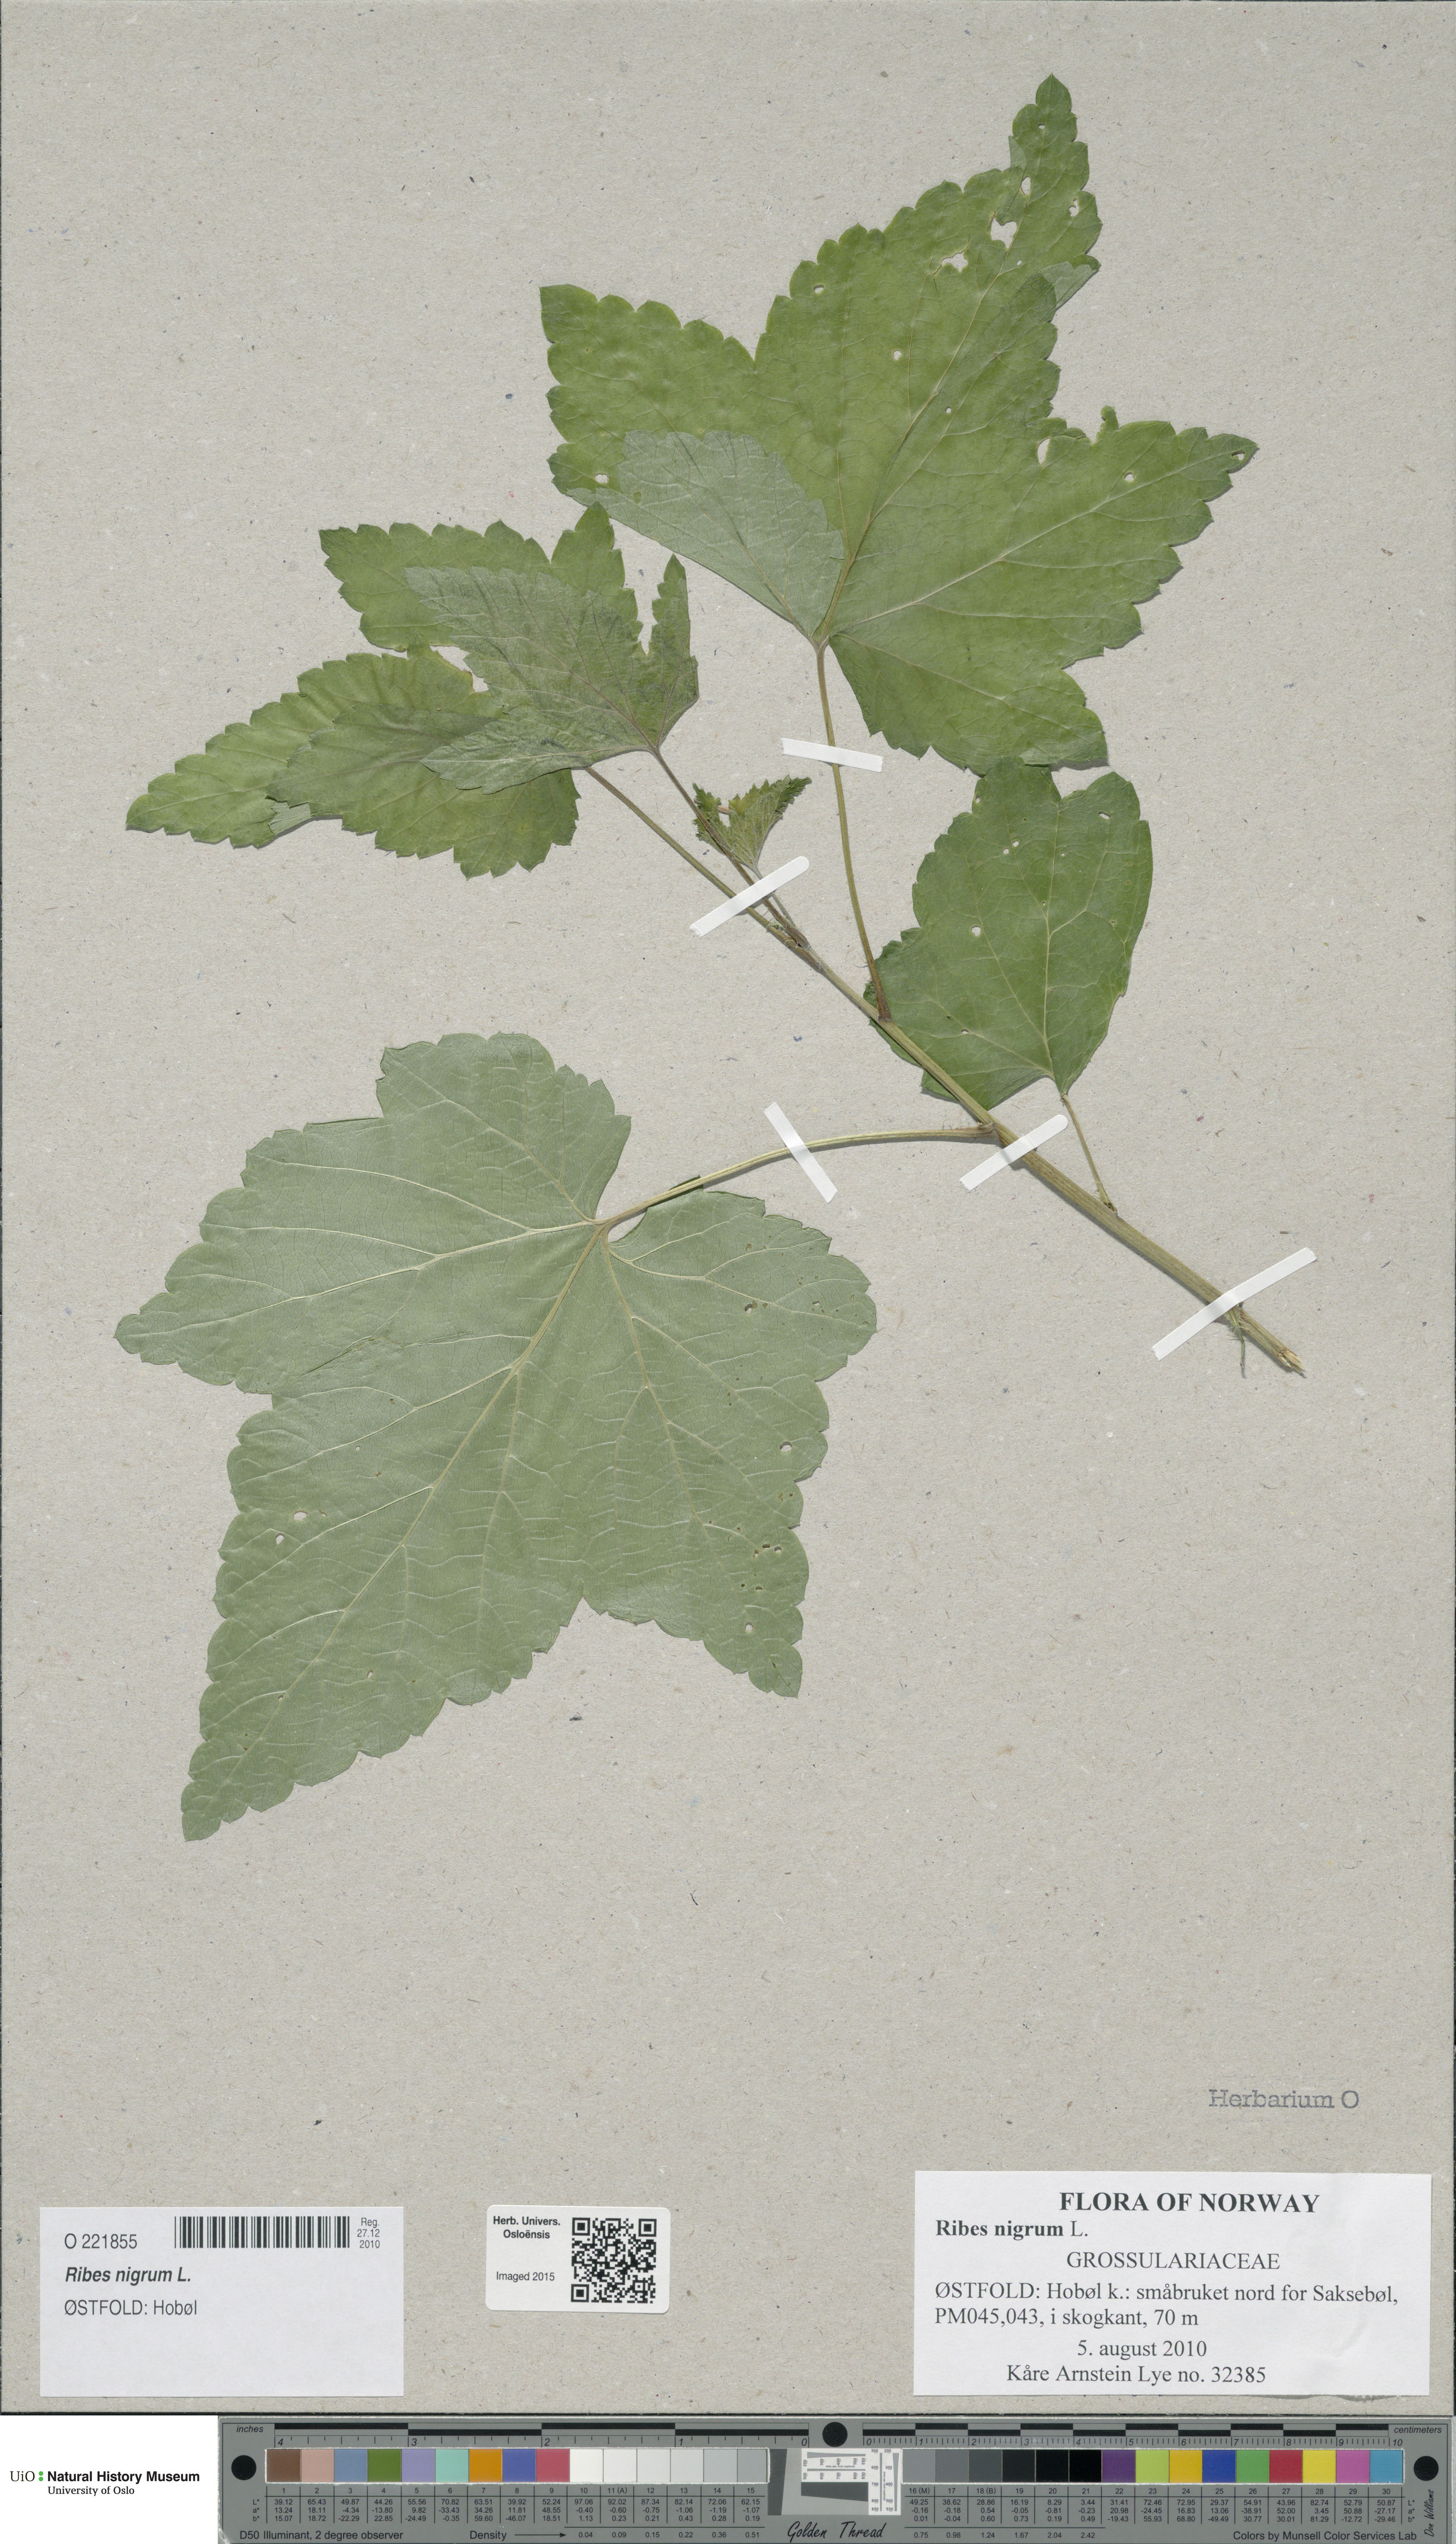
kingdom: Plantae
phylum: Tracheophyta
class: Magnoliopsida
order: Saxifragales
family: Grossulariaceae
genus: Ribes
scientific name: Ribes nigrum
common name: Black currant
